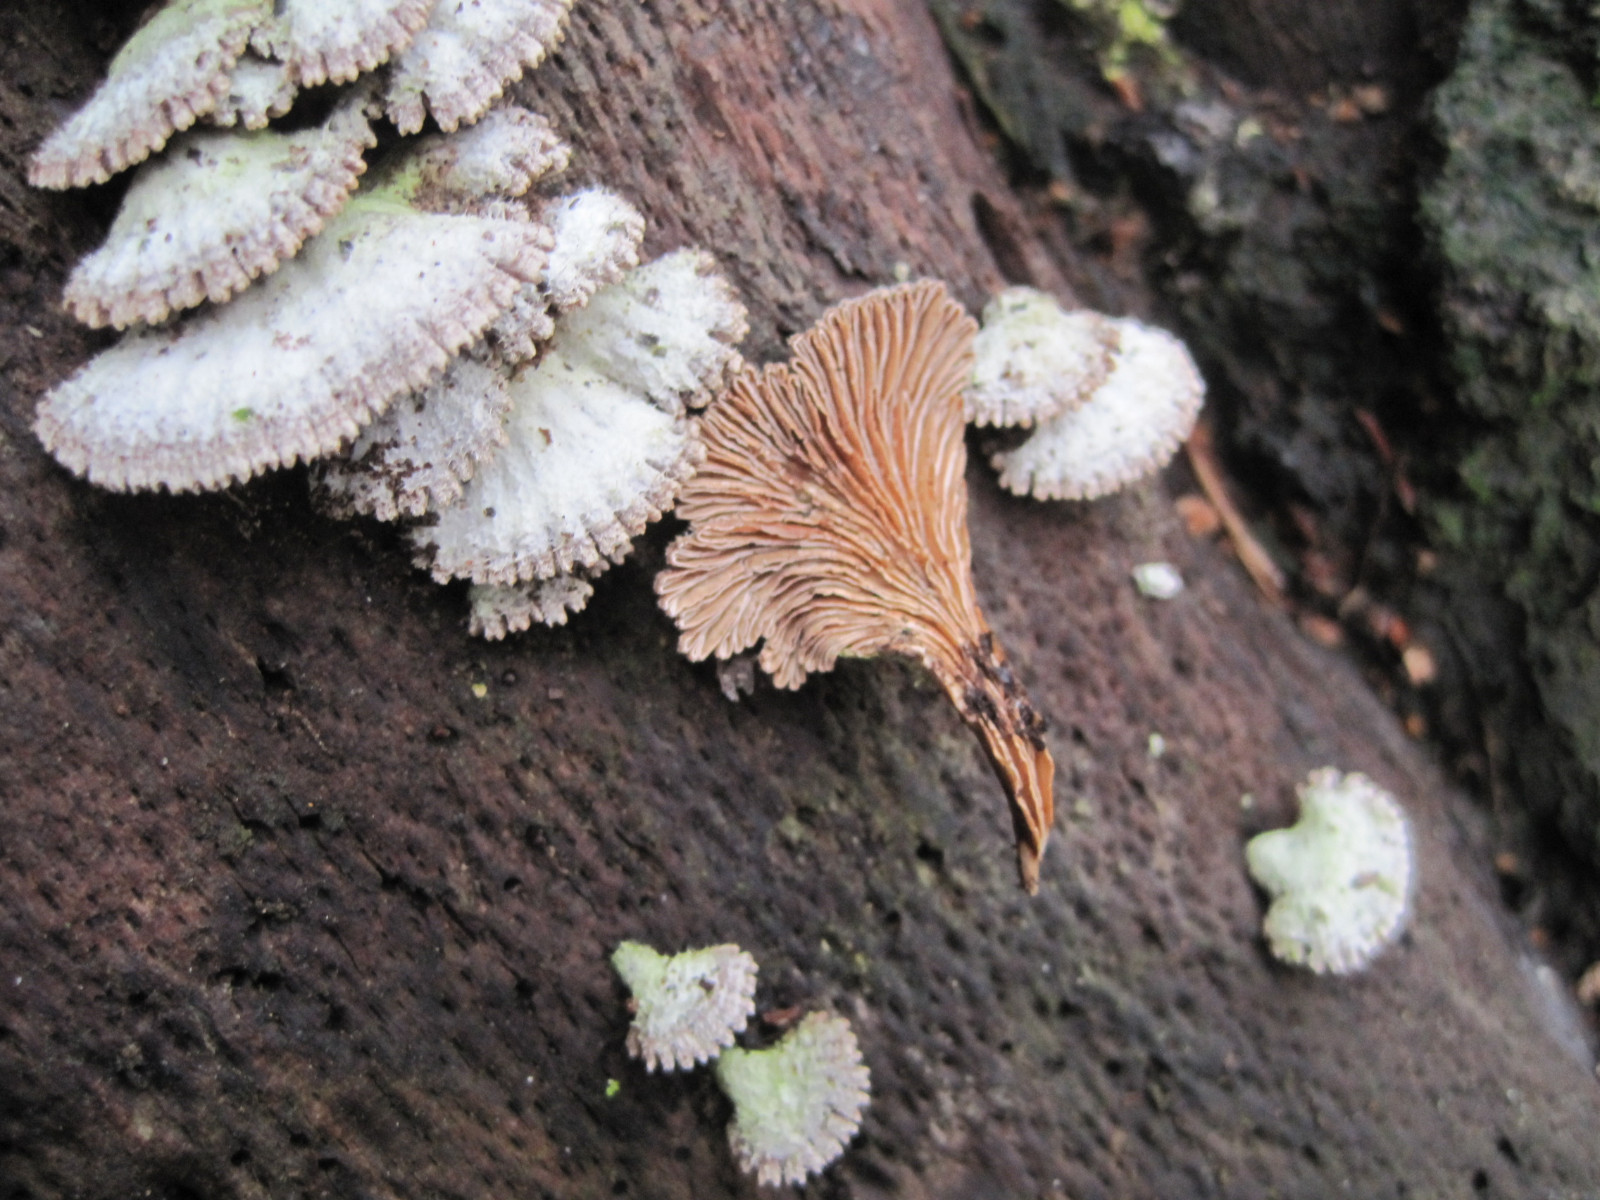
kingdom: Fungi
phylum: Basidiomycota
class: Agaricomycetes
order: Agaricales
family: Schizophyllaceae
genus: Schizophyllum
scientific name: Schizophyllum commune
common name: kløvblad
